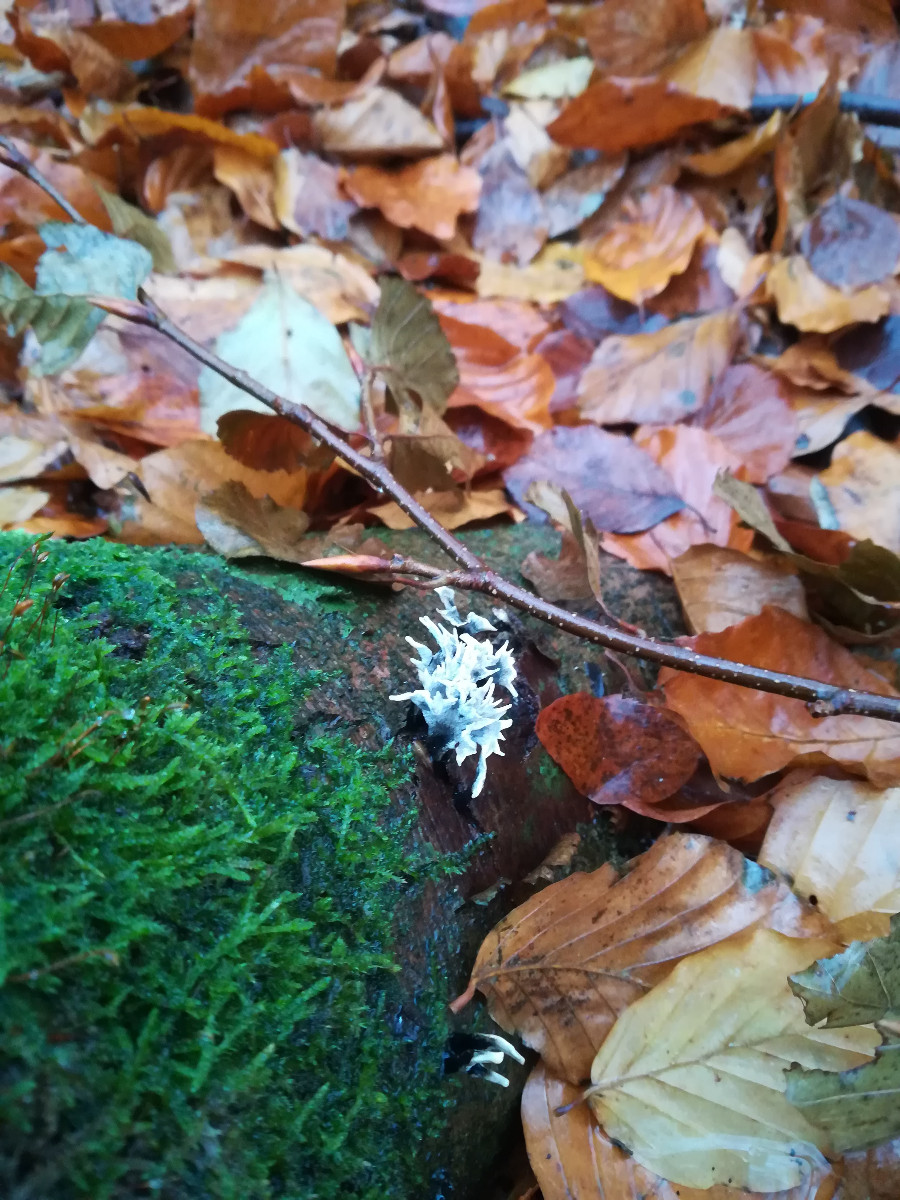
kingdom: Fungi
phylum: Ascomycota
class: Sordariomycetes
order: Xylariales
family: Xylariaceae
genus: Xylaria
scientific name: Xylaria hypoxylon
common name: grenet stødsvamp
